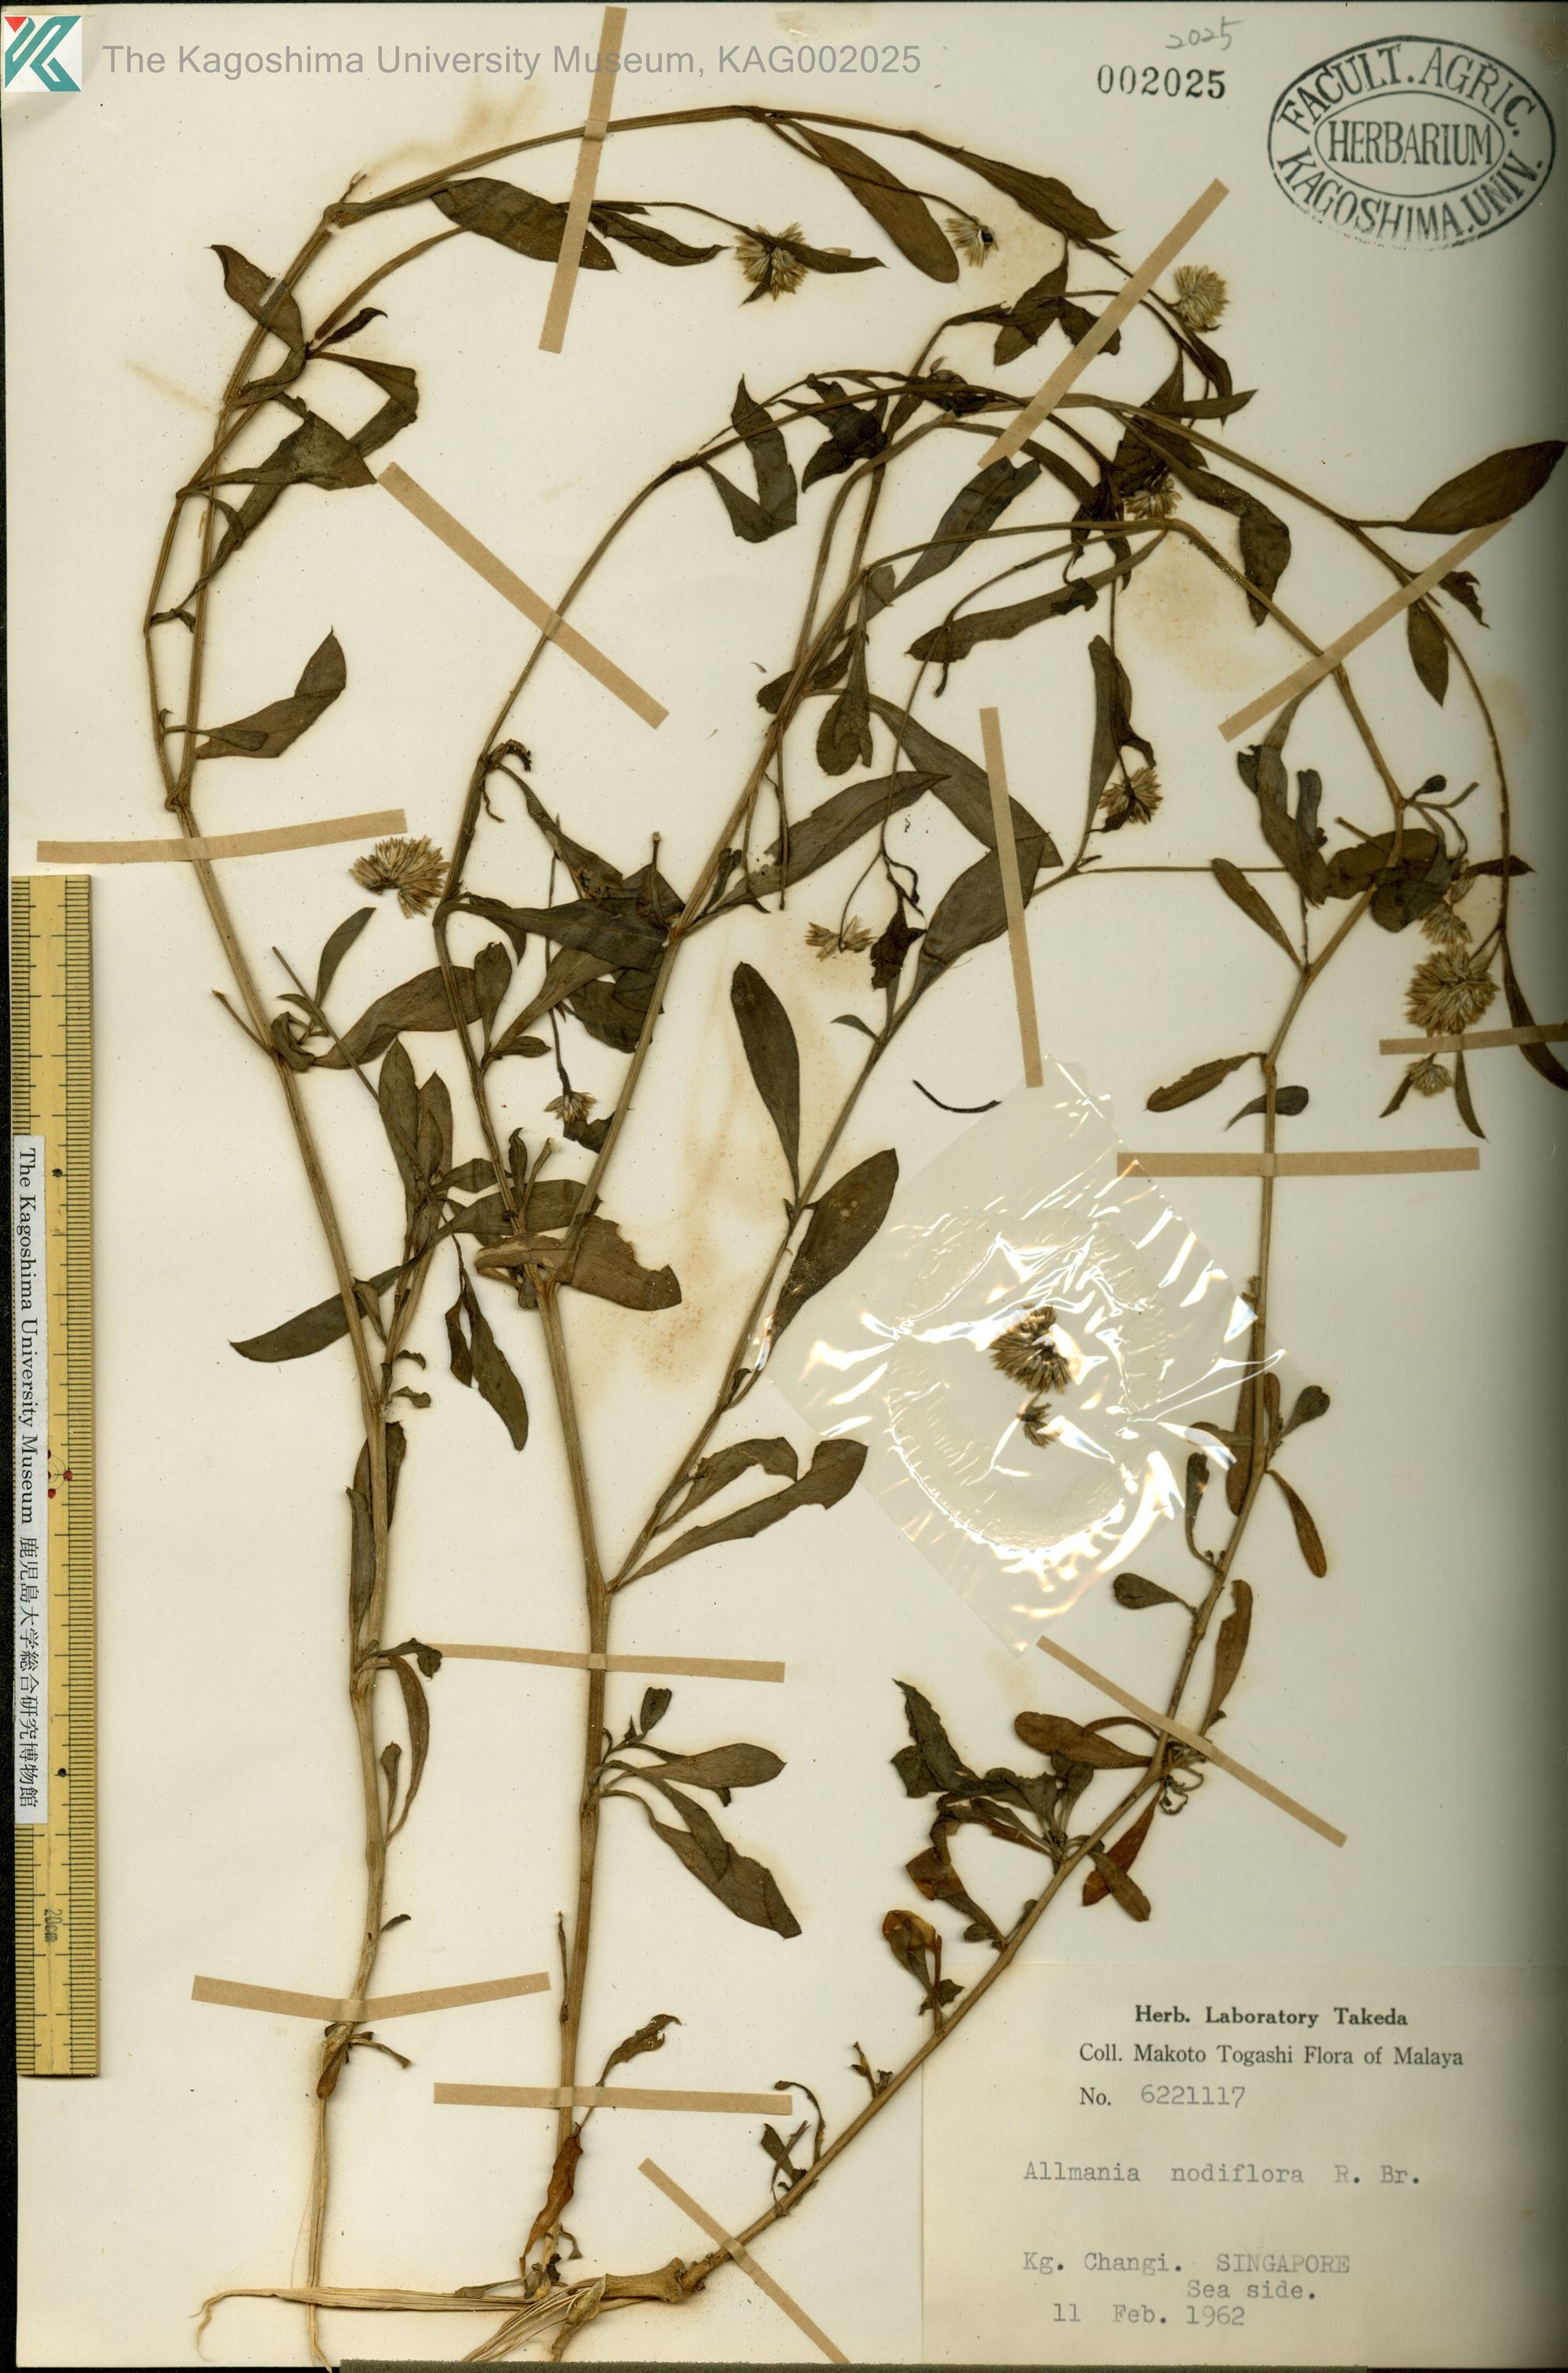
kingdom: Plantae
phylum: Tracheophyta
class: Magnoliopsida
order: Caryophyllales
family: Amaranthaceae
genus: Allmania
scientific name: Allmania nodiflora
